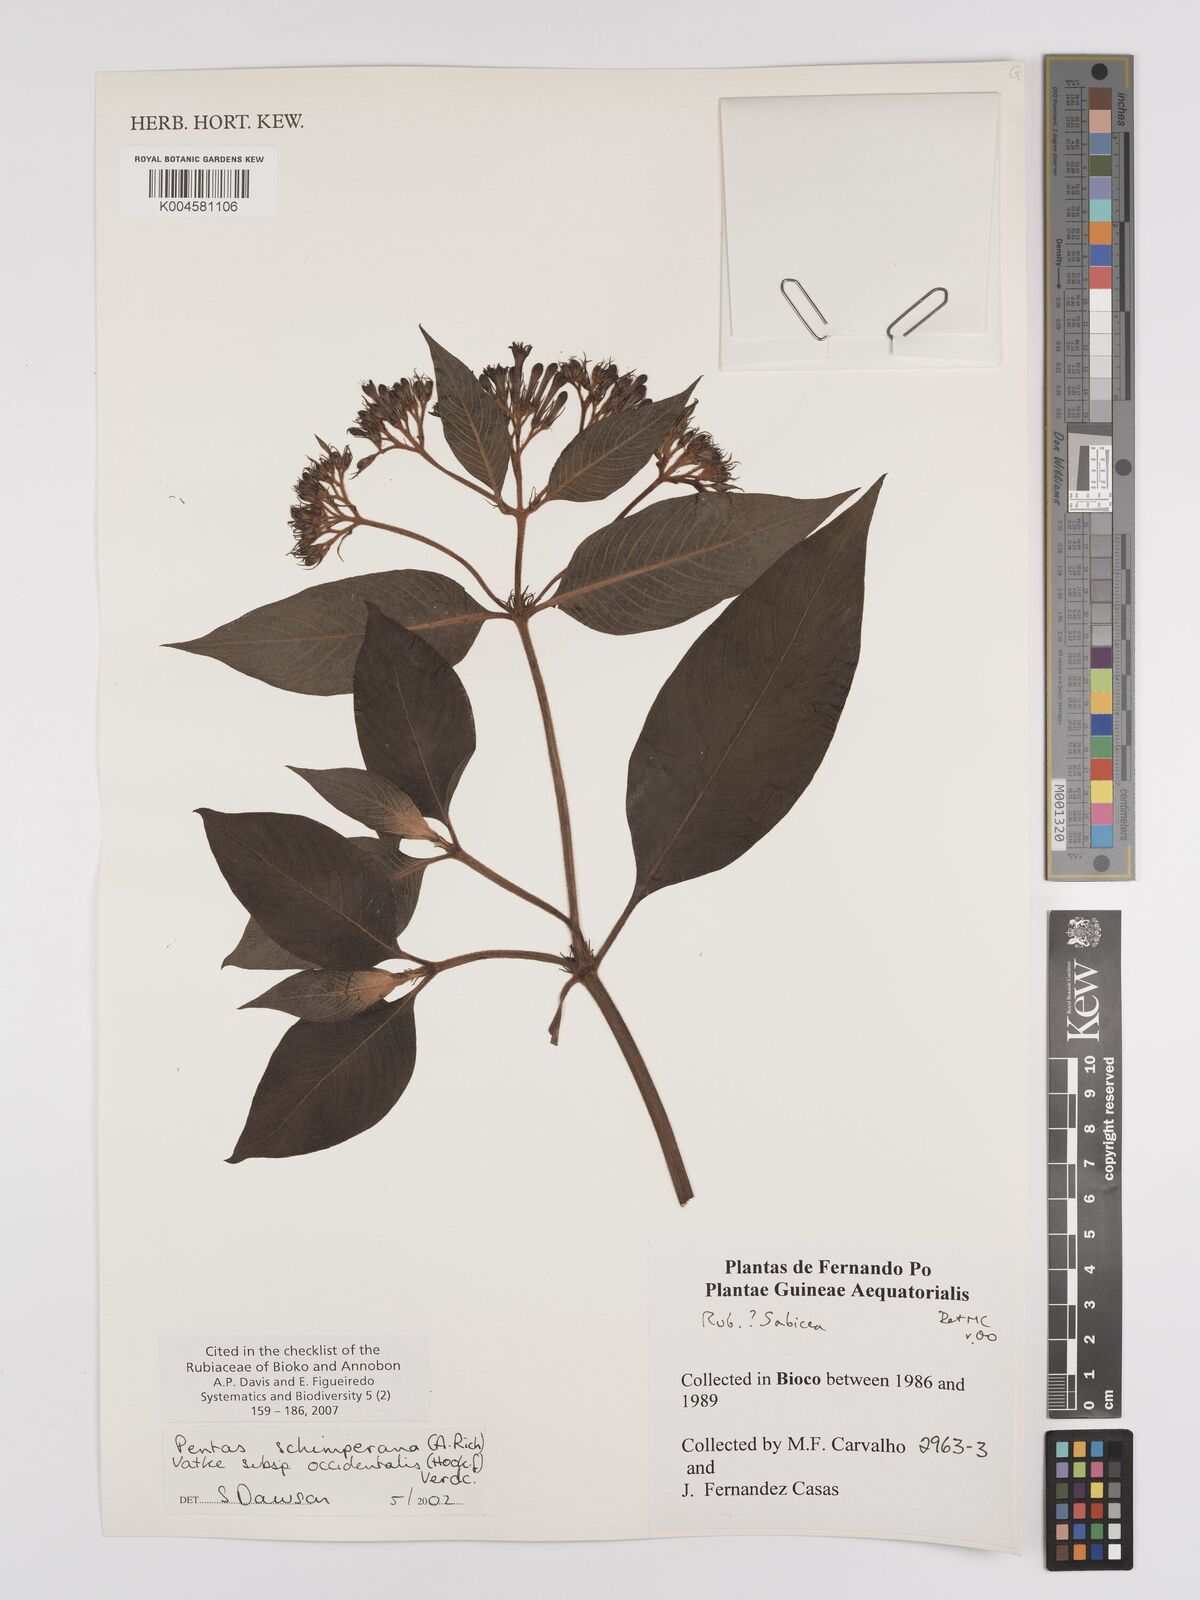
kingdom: Plantae
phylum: Tracheophyta
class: Magnoliopsida
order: Gentianales
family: Rubiaceae
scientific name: Rubiaceae
